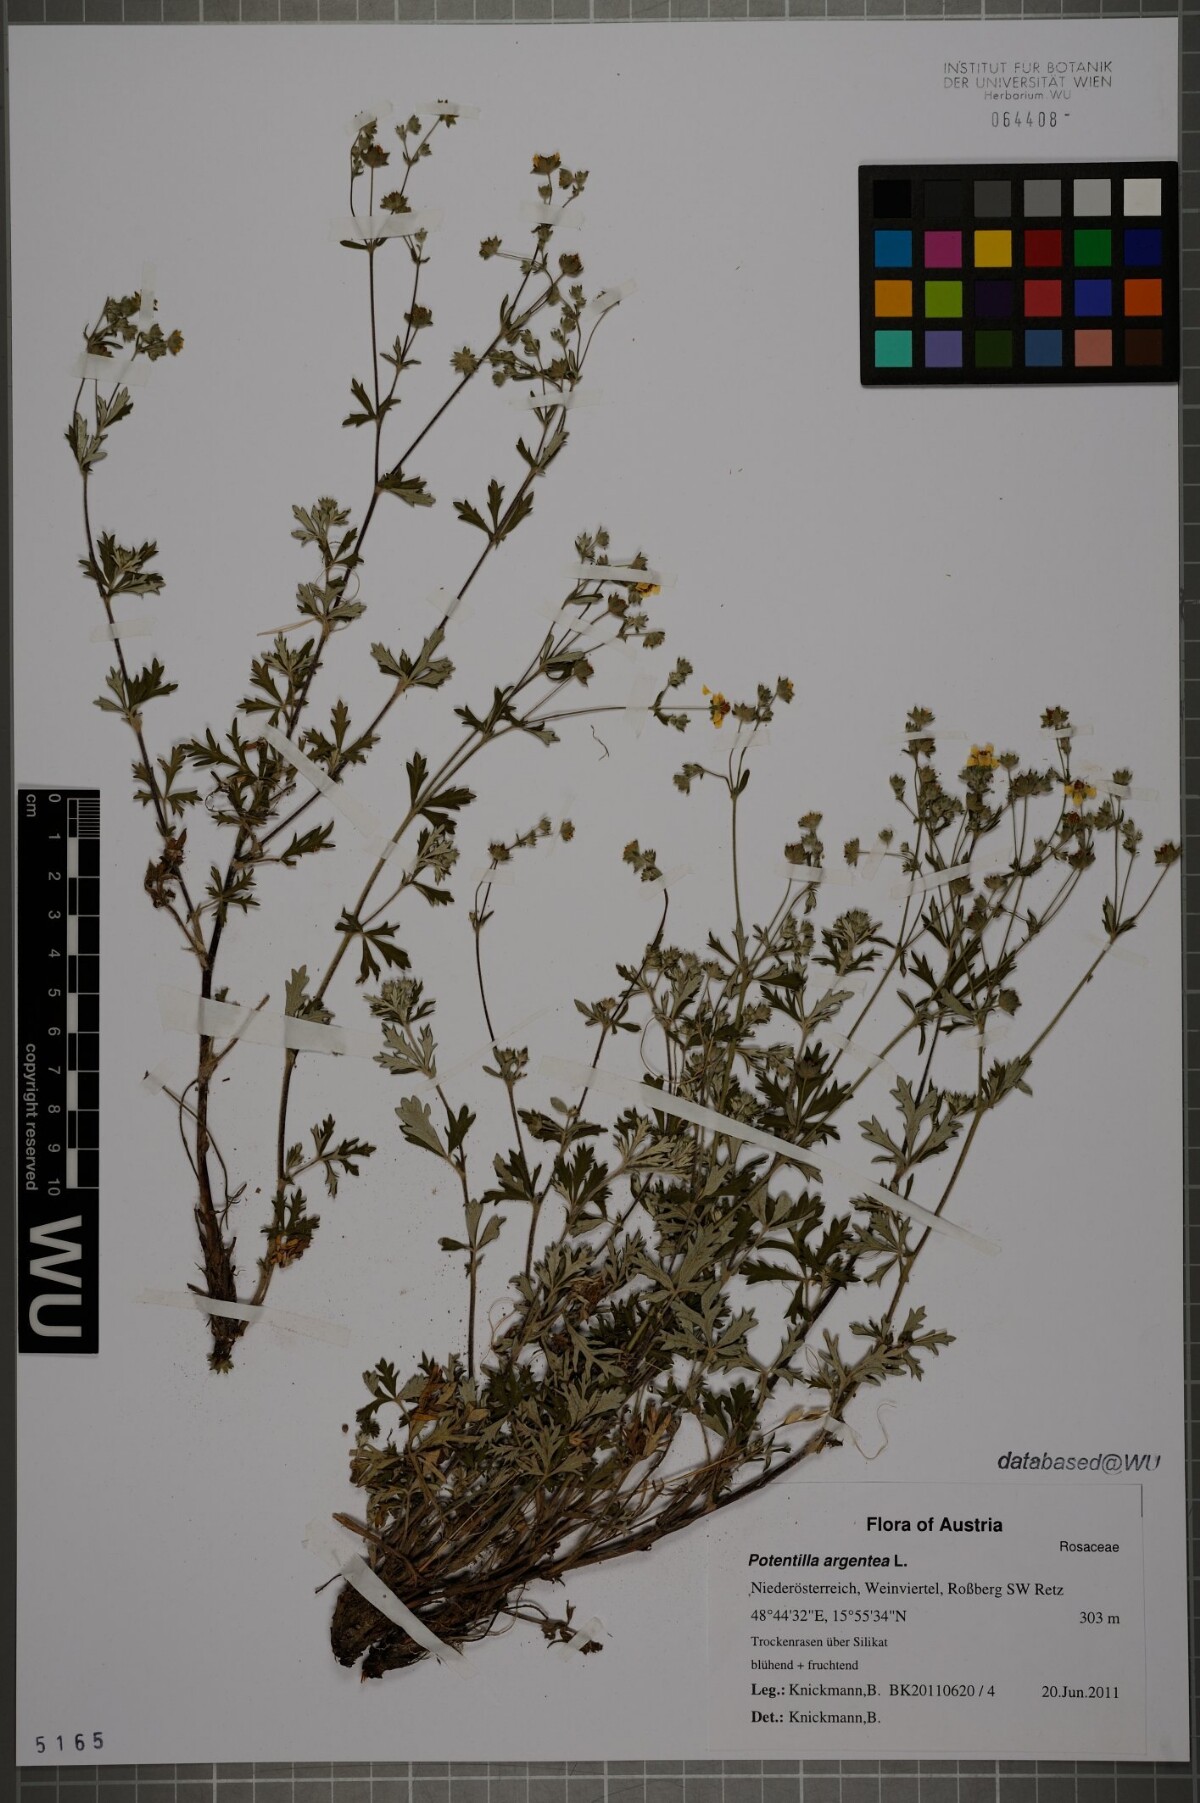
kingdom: Plantae
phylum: Tracheophyta
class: Magnoliopsida
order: Rosales
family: Rosaceae
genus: Potentilla
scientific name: Potentilla argentea
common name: Hoary cinquefoil
